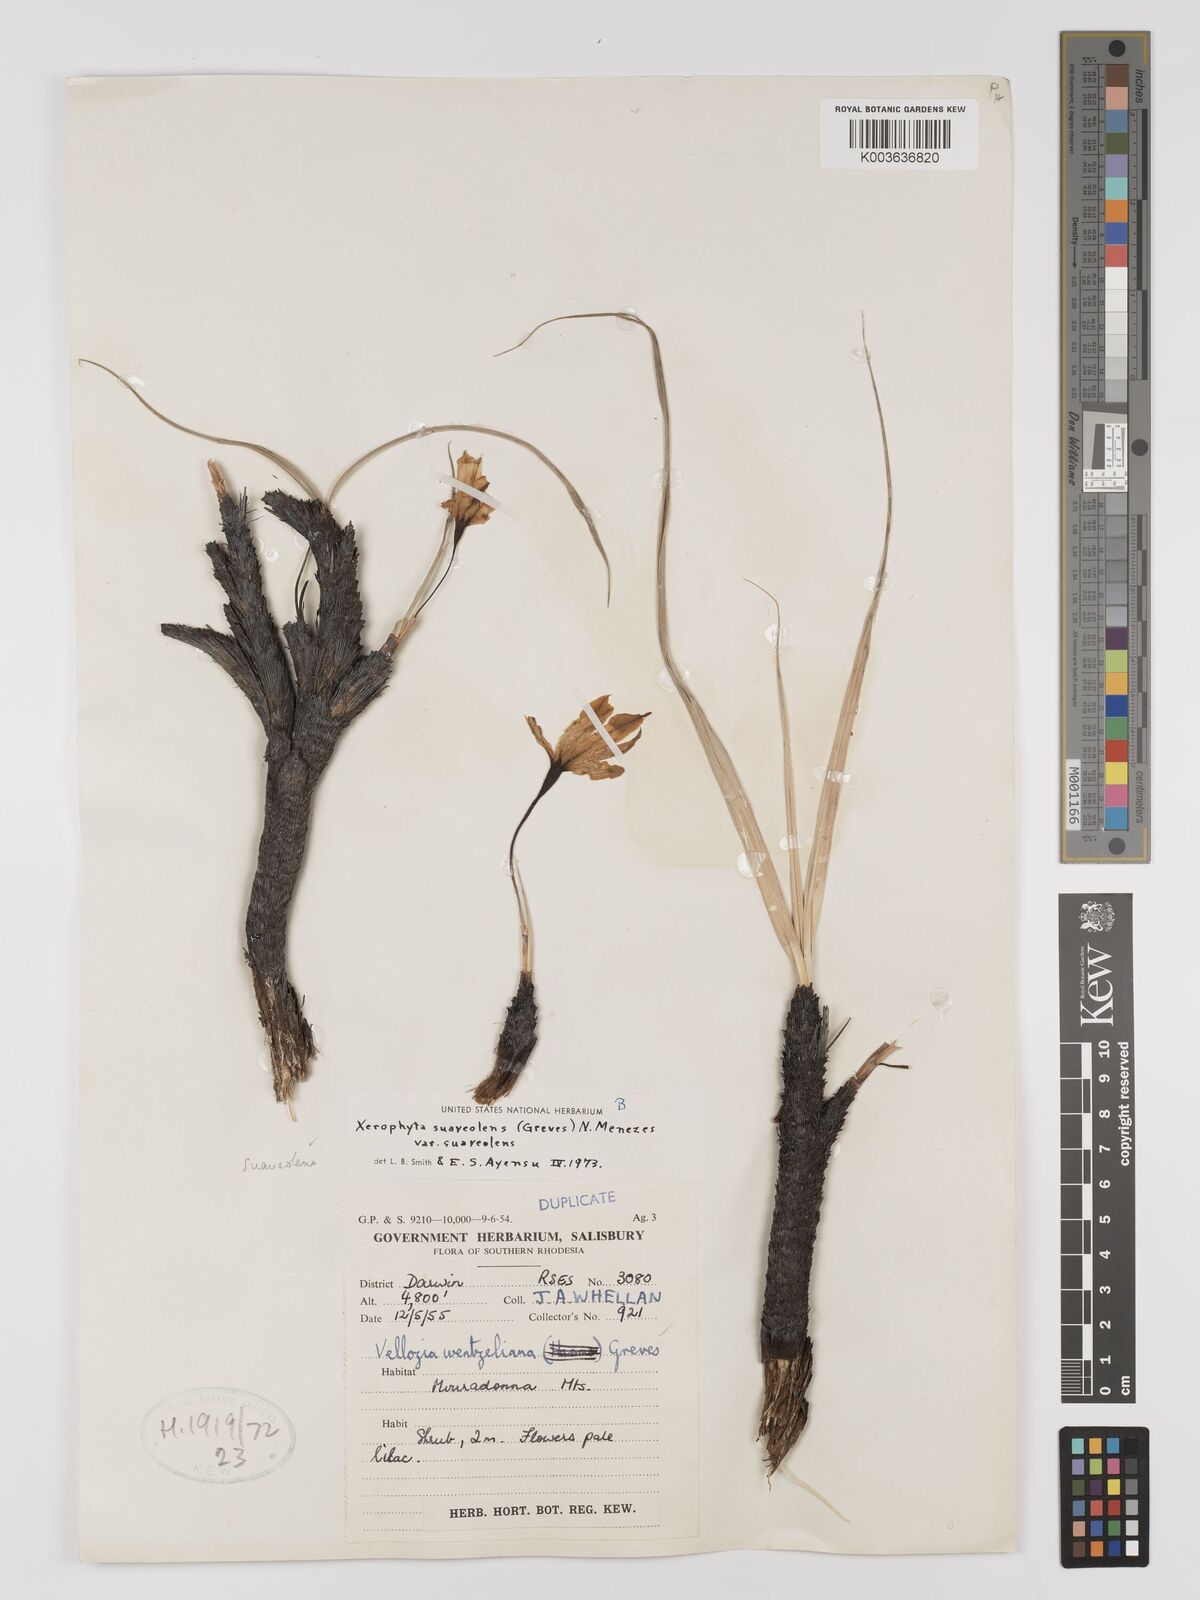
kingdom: Plantae
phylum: Tracheophyta
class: Liliopsida
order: Pandanales
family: Velloziaceae
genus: Xerophyta
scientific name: Xerophyta suaveolens
